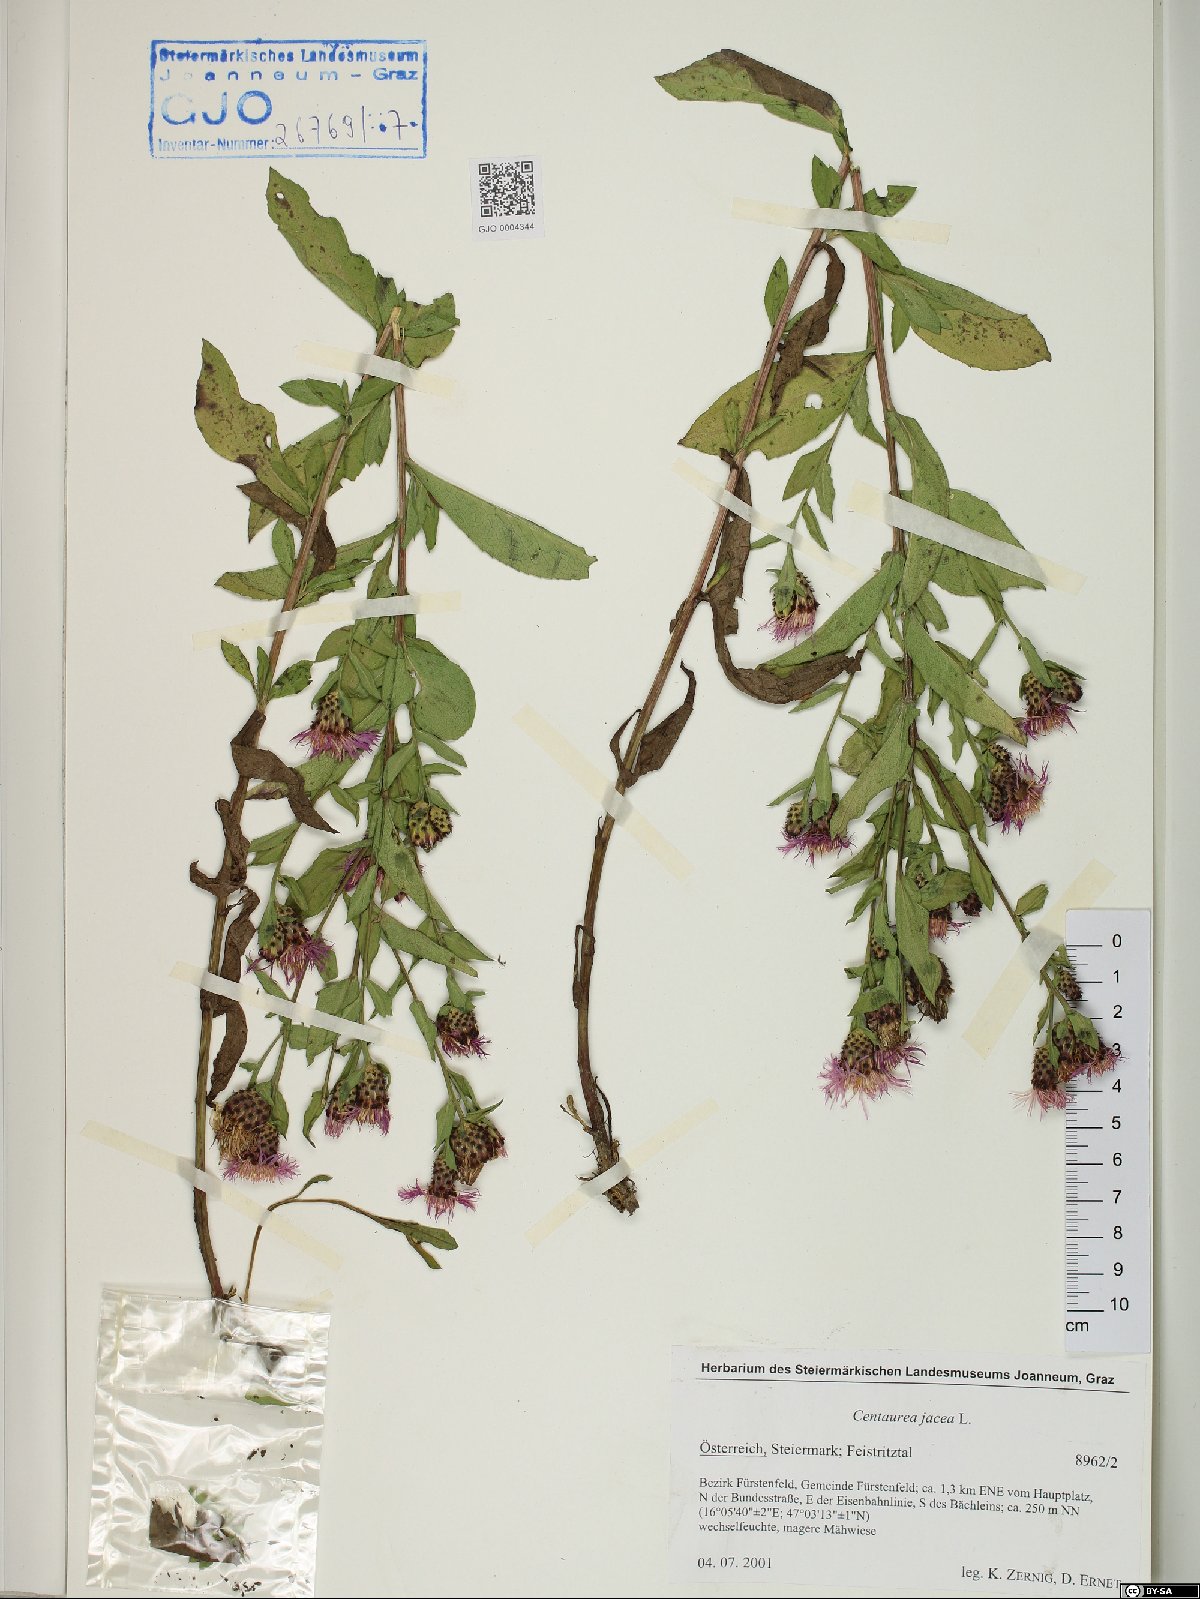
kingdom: Plantae
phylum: Tracheophyta
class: Magnoliopsida
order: Asterales
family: Asteraceae
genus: Centaurea
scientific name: Centaurea jacea
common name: Brown knapweed
